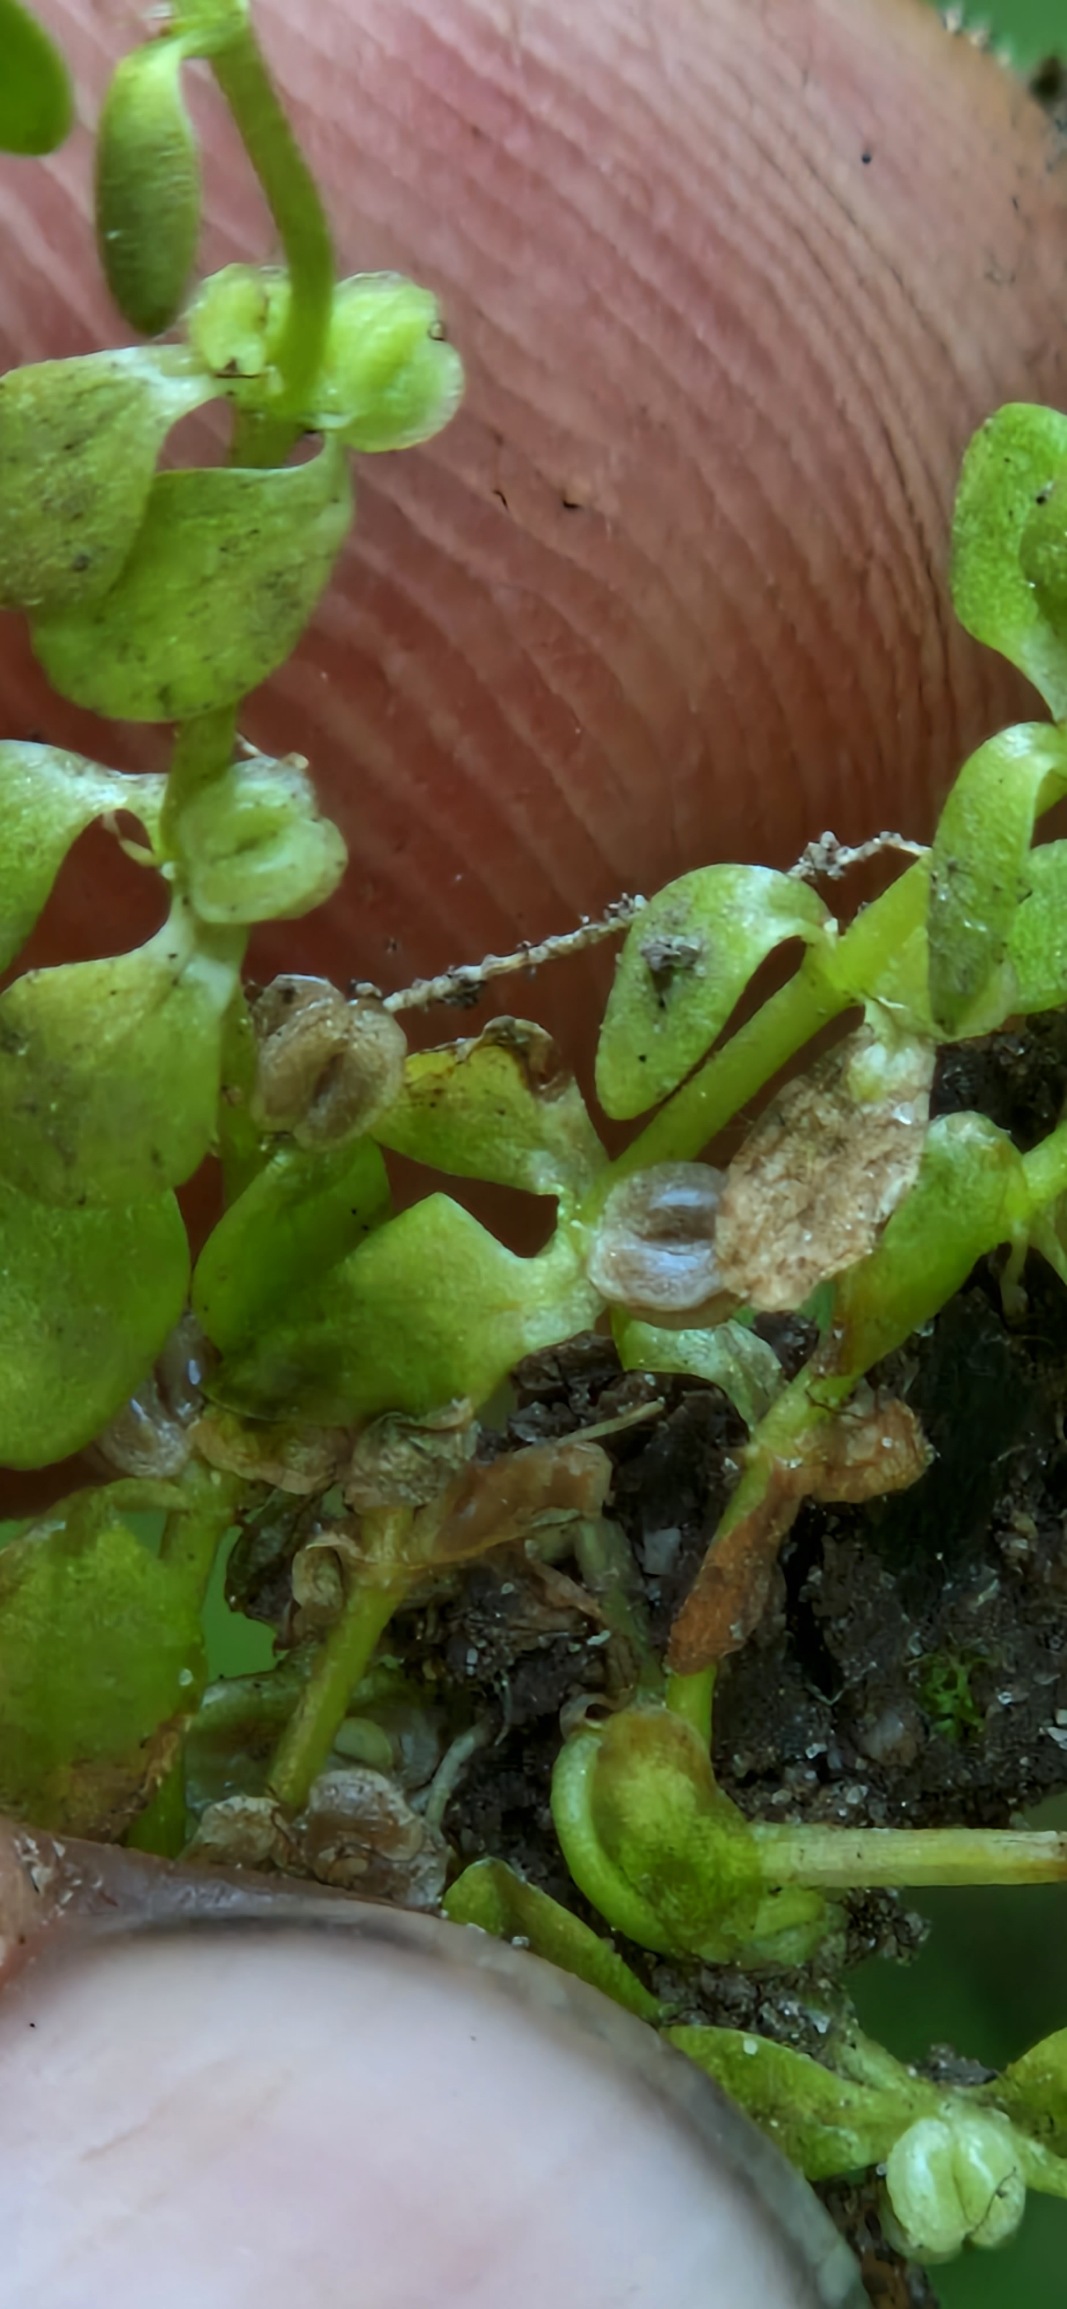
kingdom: Plantae
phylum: Tracheophyta
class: Magnoliopsida
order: Lamiales
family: Plantaginaceae
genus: Callitriche
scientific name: Callitriche stagnalis
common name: Storfrugtet vandstjerne
